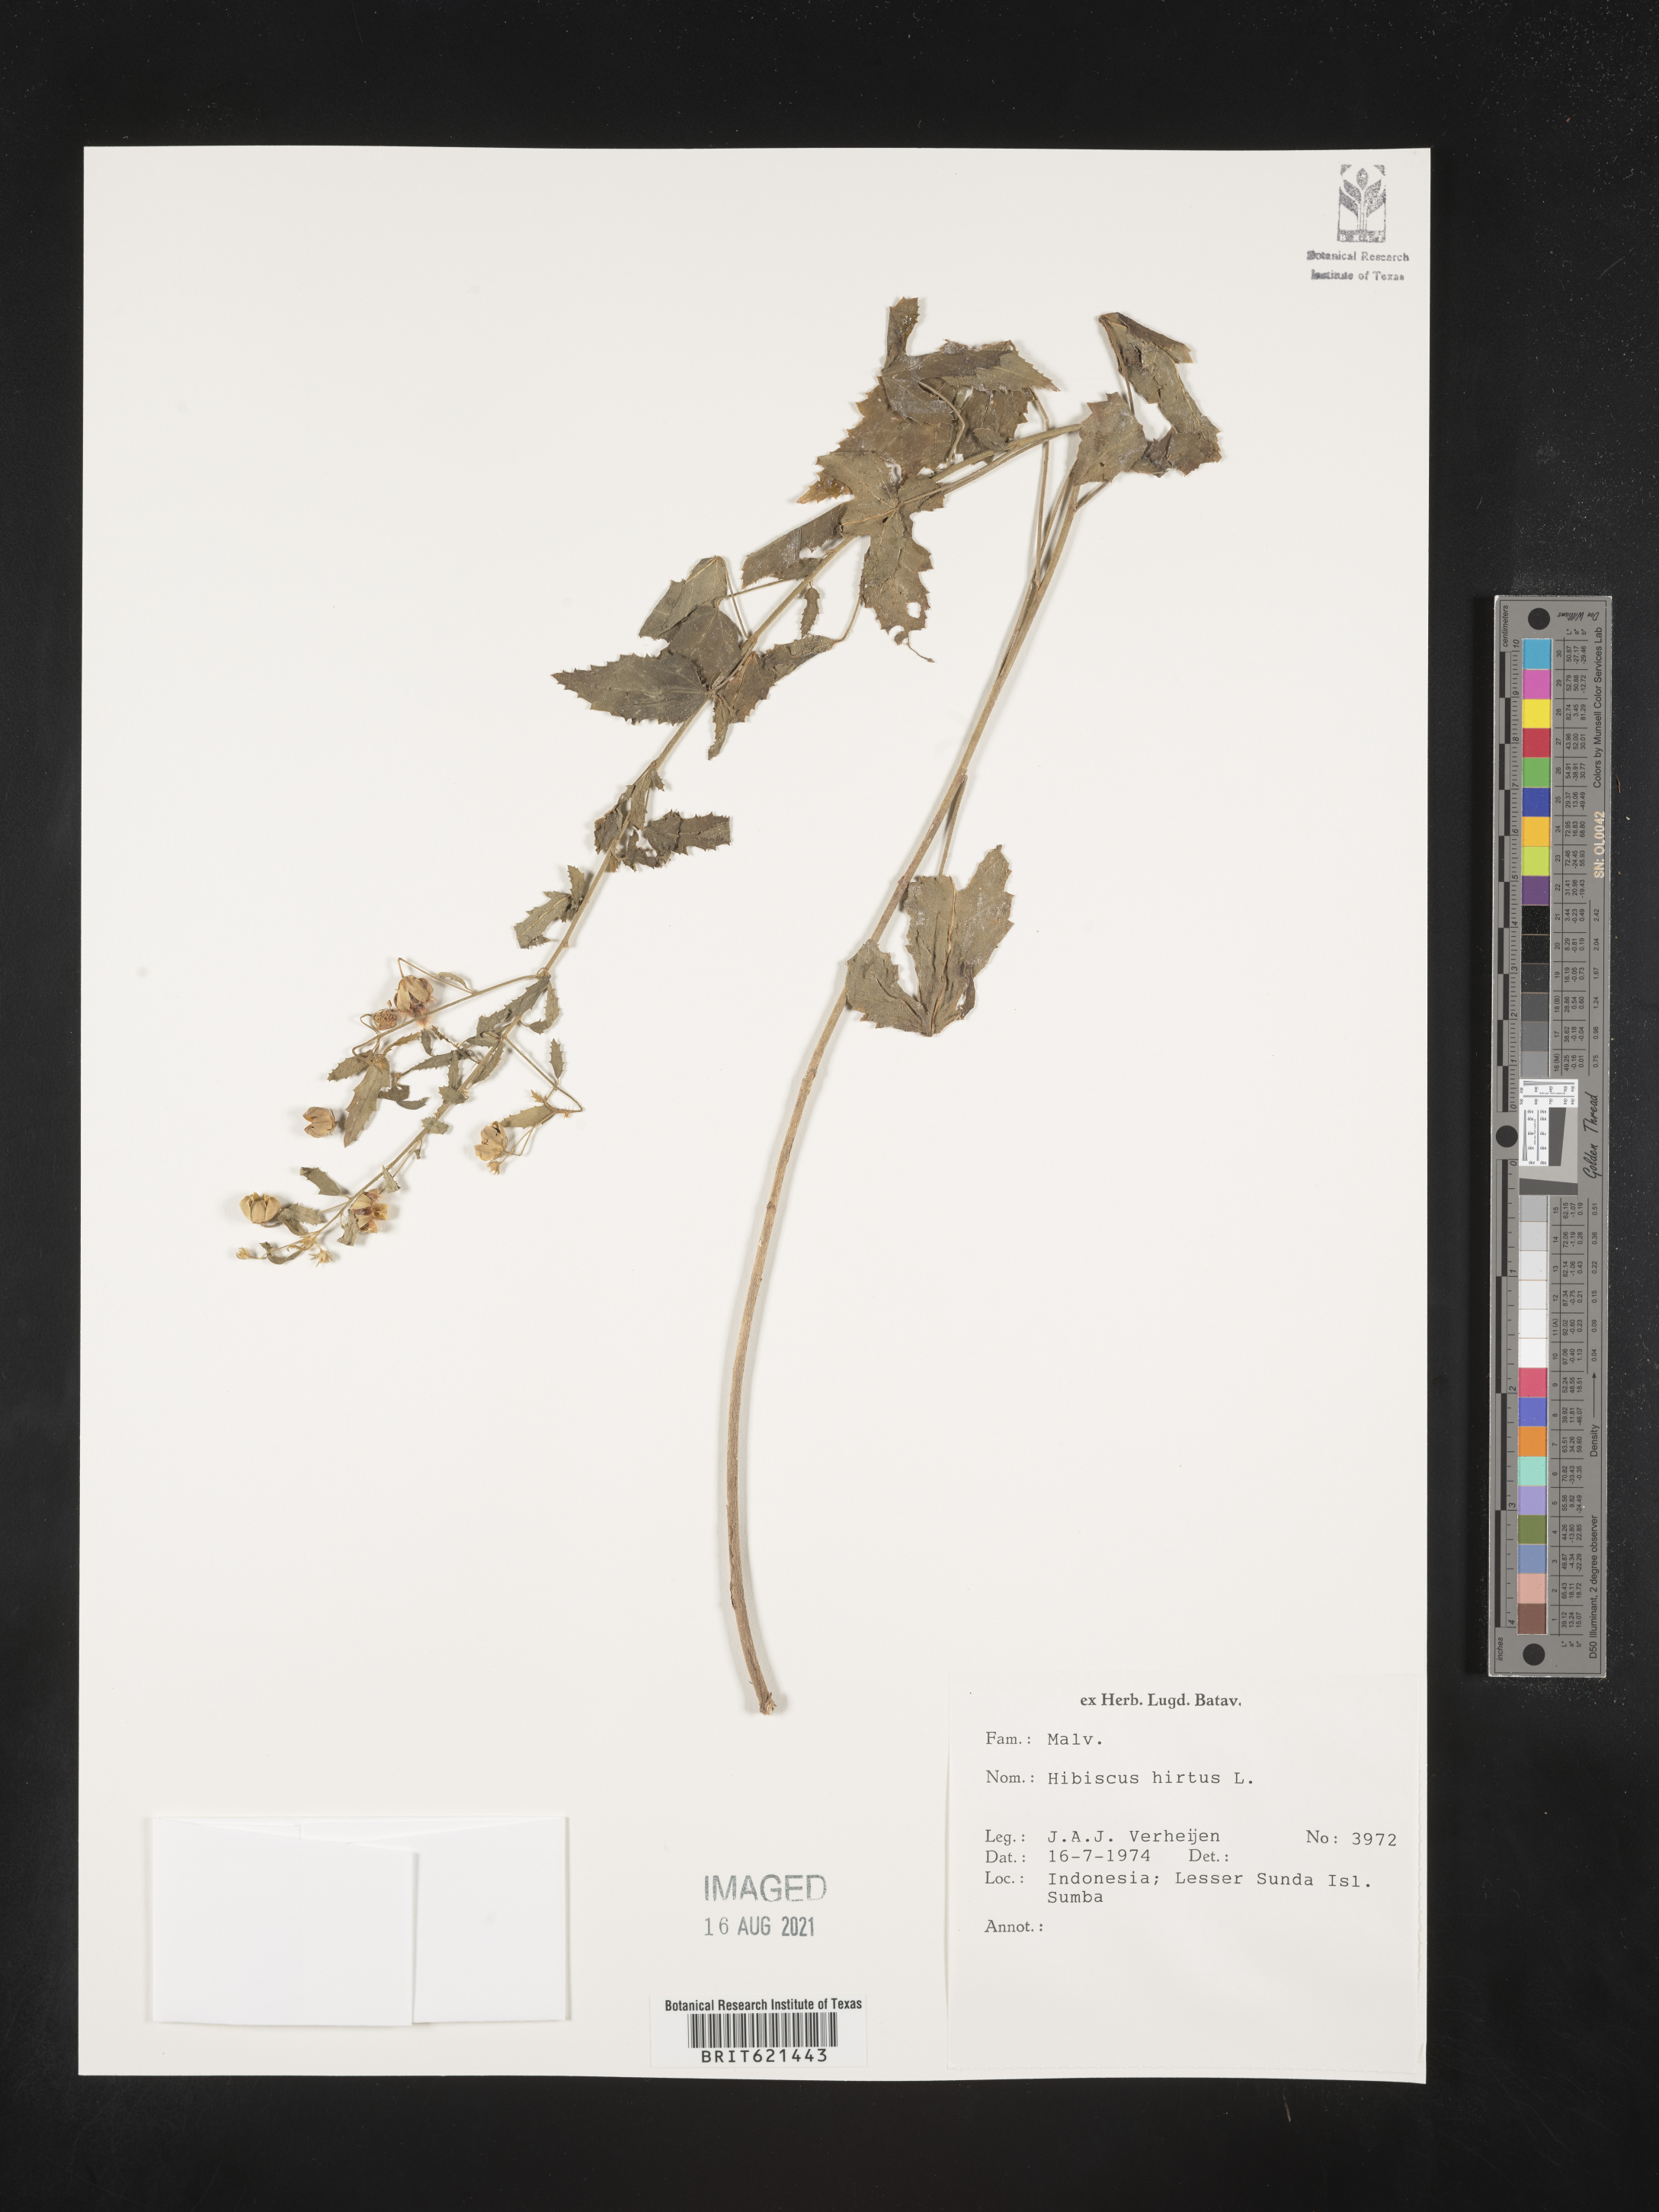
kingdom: Plantae
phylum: Tracheophyta
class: Magnoliopsida
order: Malvales
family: Malvaceae
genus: Hibiscus
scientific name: Hibiscus hirtus
